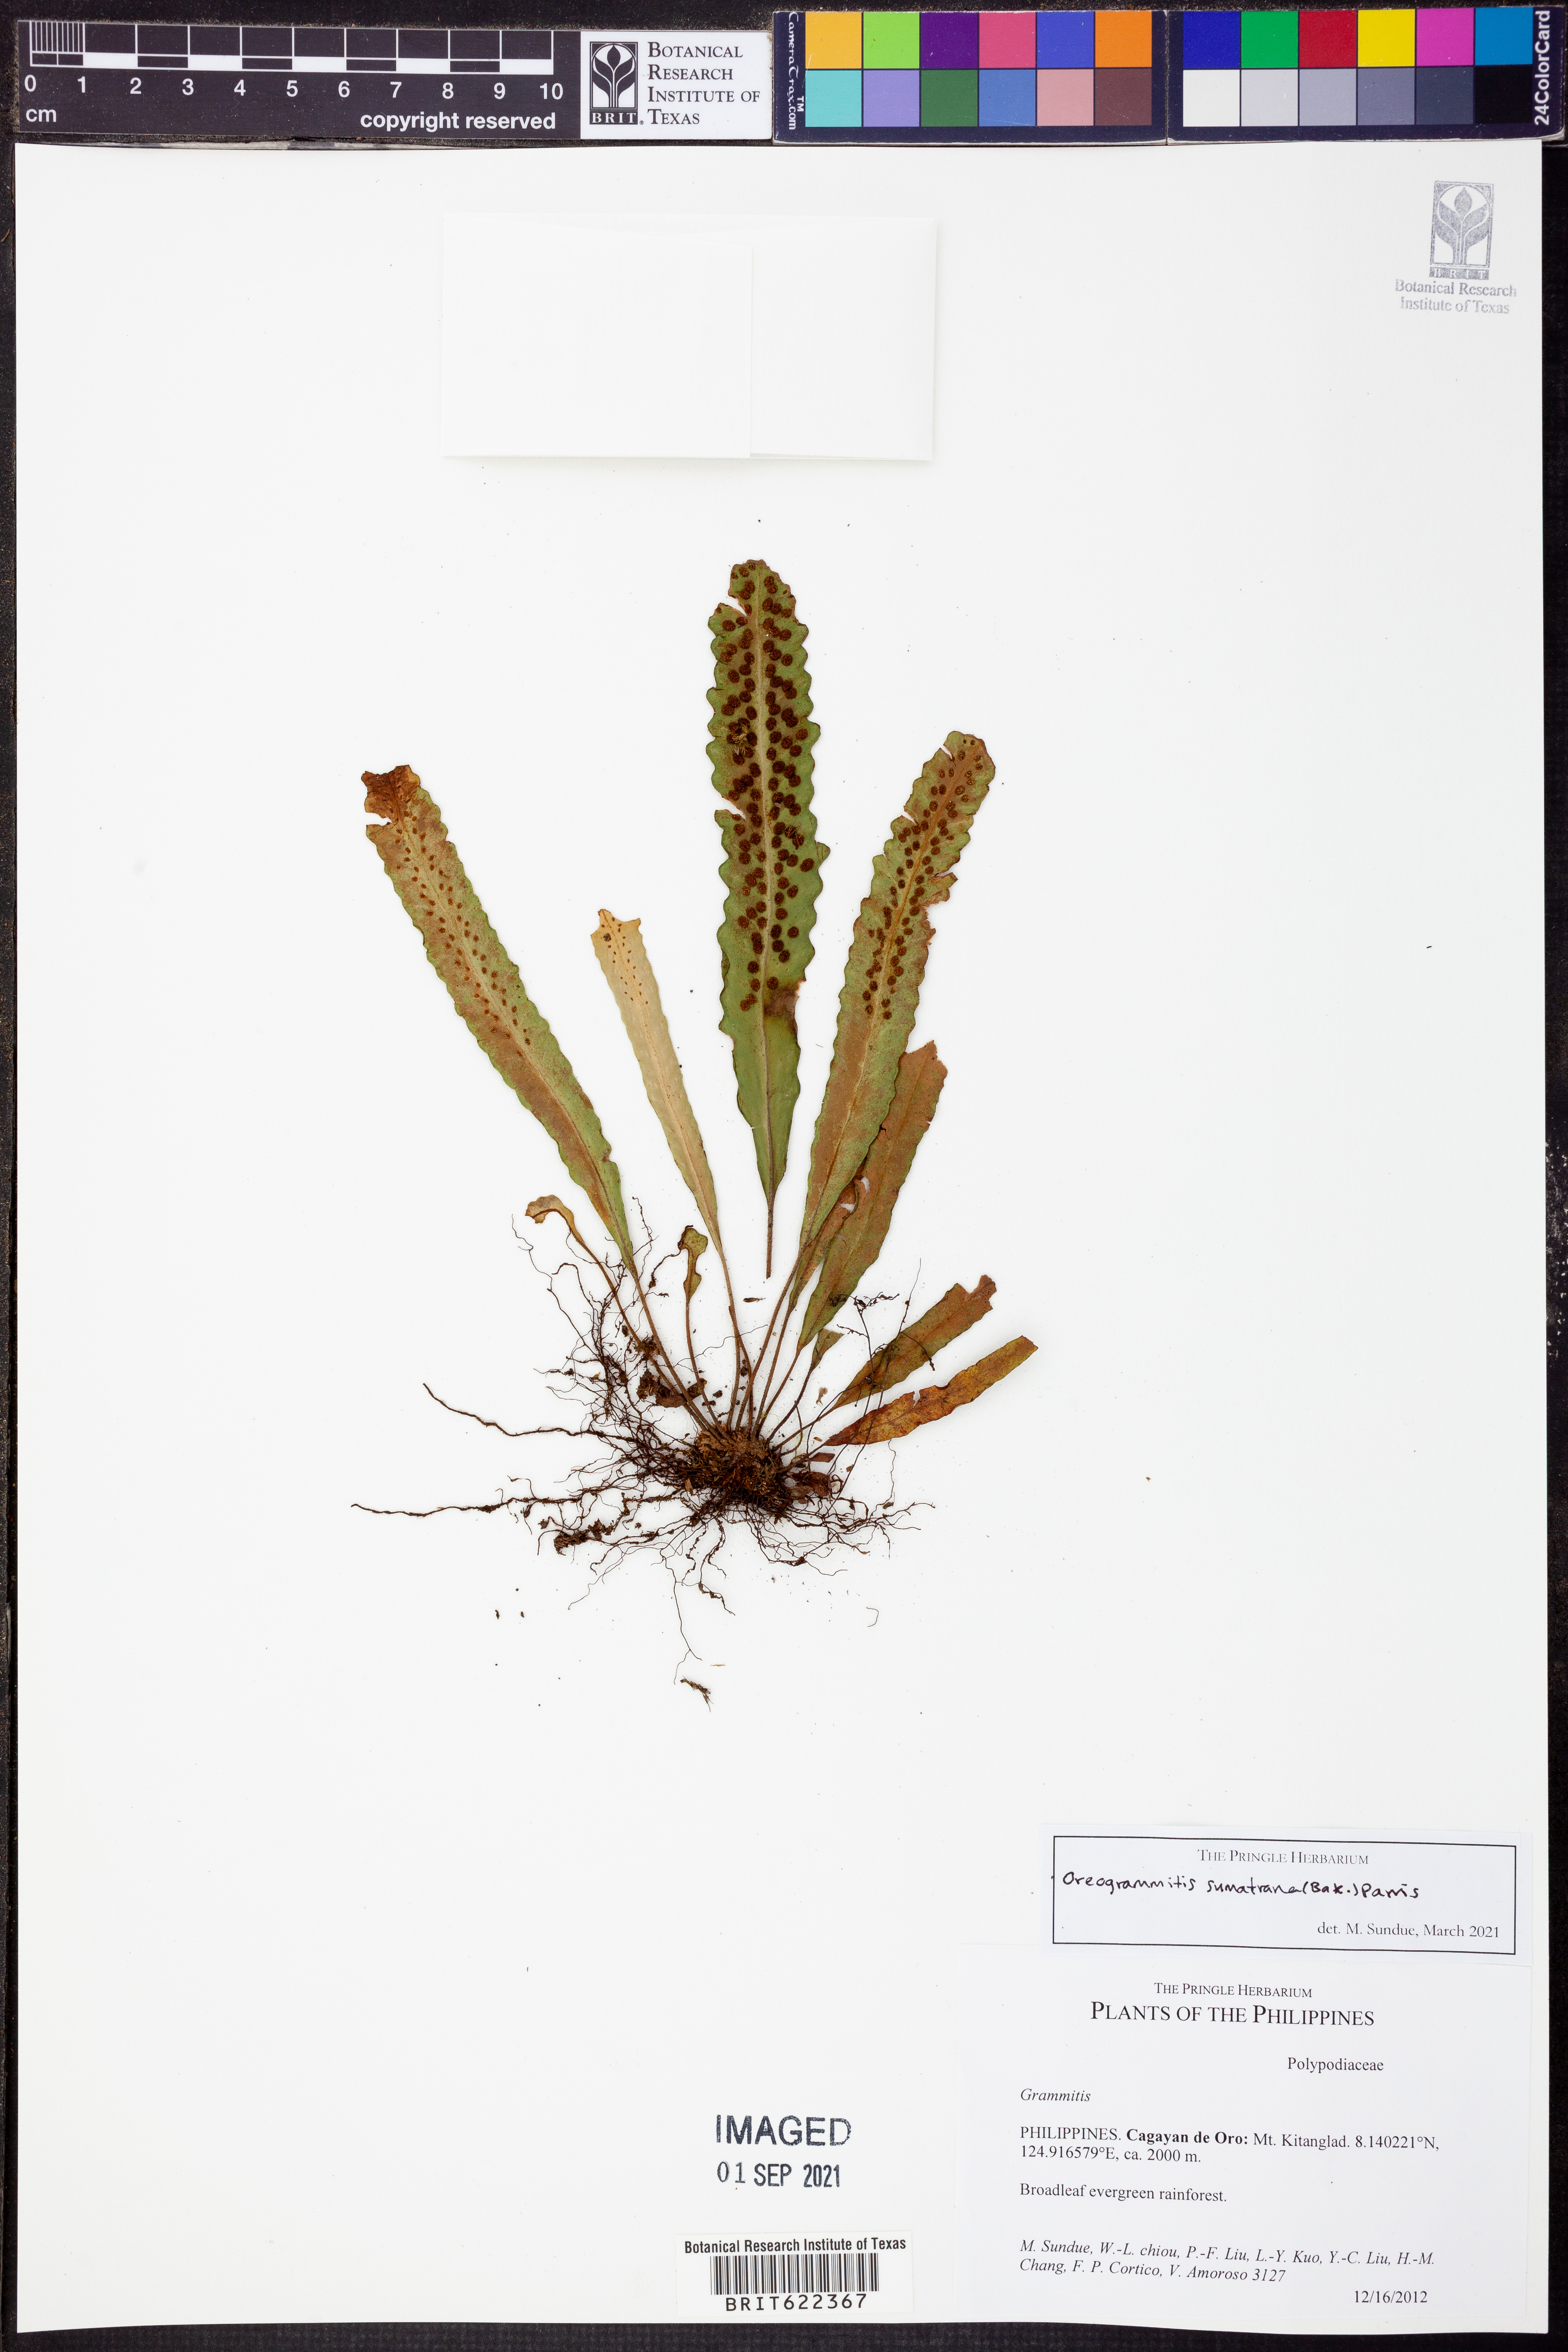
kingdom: Plantae
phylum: Tracheophyta
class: Polypodiopsida
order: Polypodiales
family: Polypodiaceae
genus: Oreogrammitis
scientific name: Oreogrammitis sumatrana
